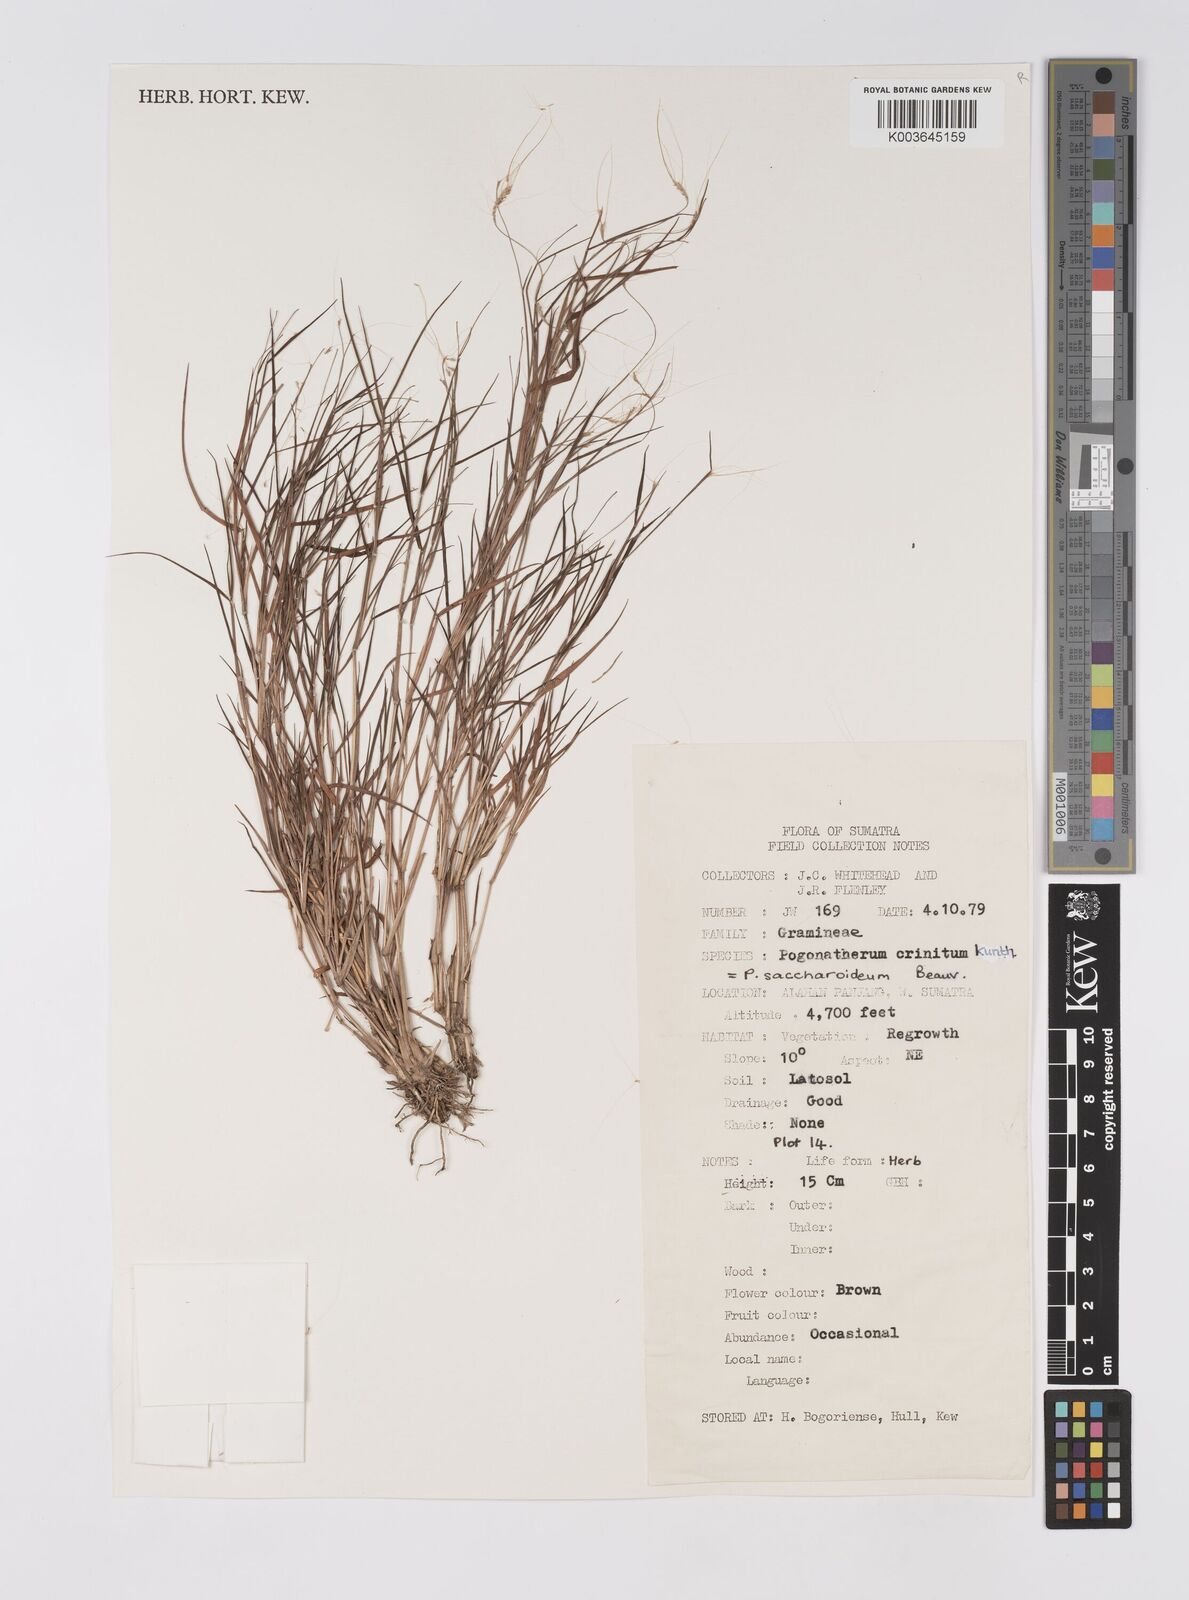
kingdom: Plantae
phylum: Tracheophyta
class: Liliopsida
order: Poales
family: Poaceae
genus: Pogonatherum
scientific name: Pogonatherum crinitum
